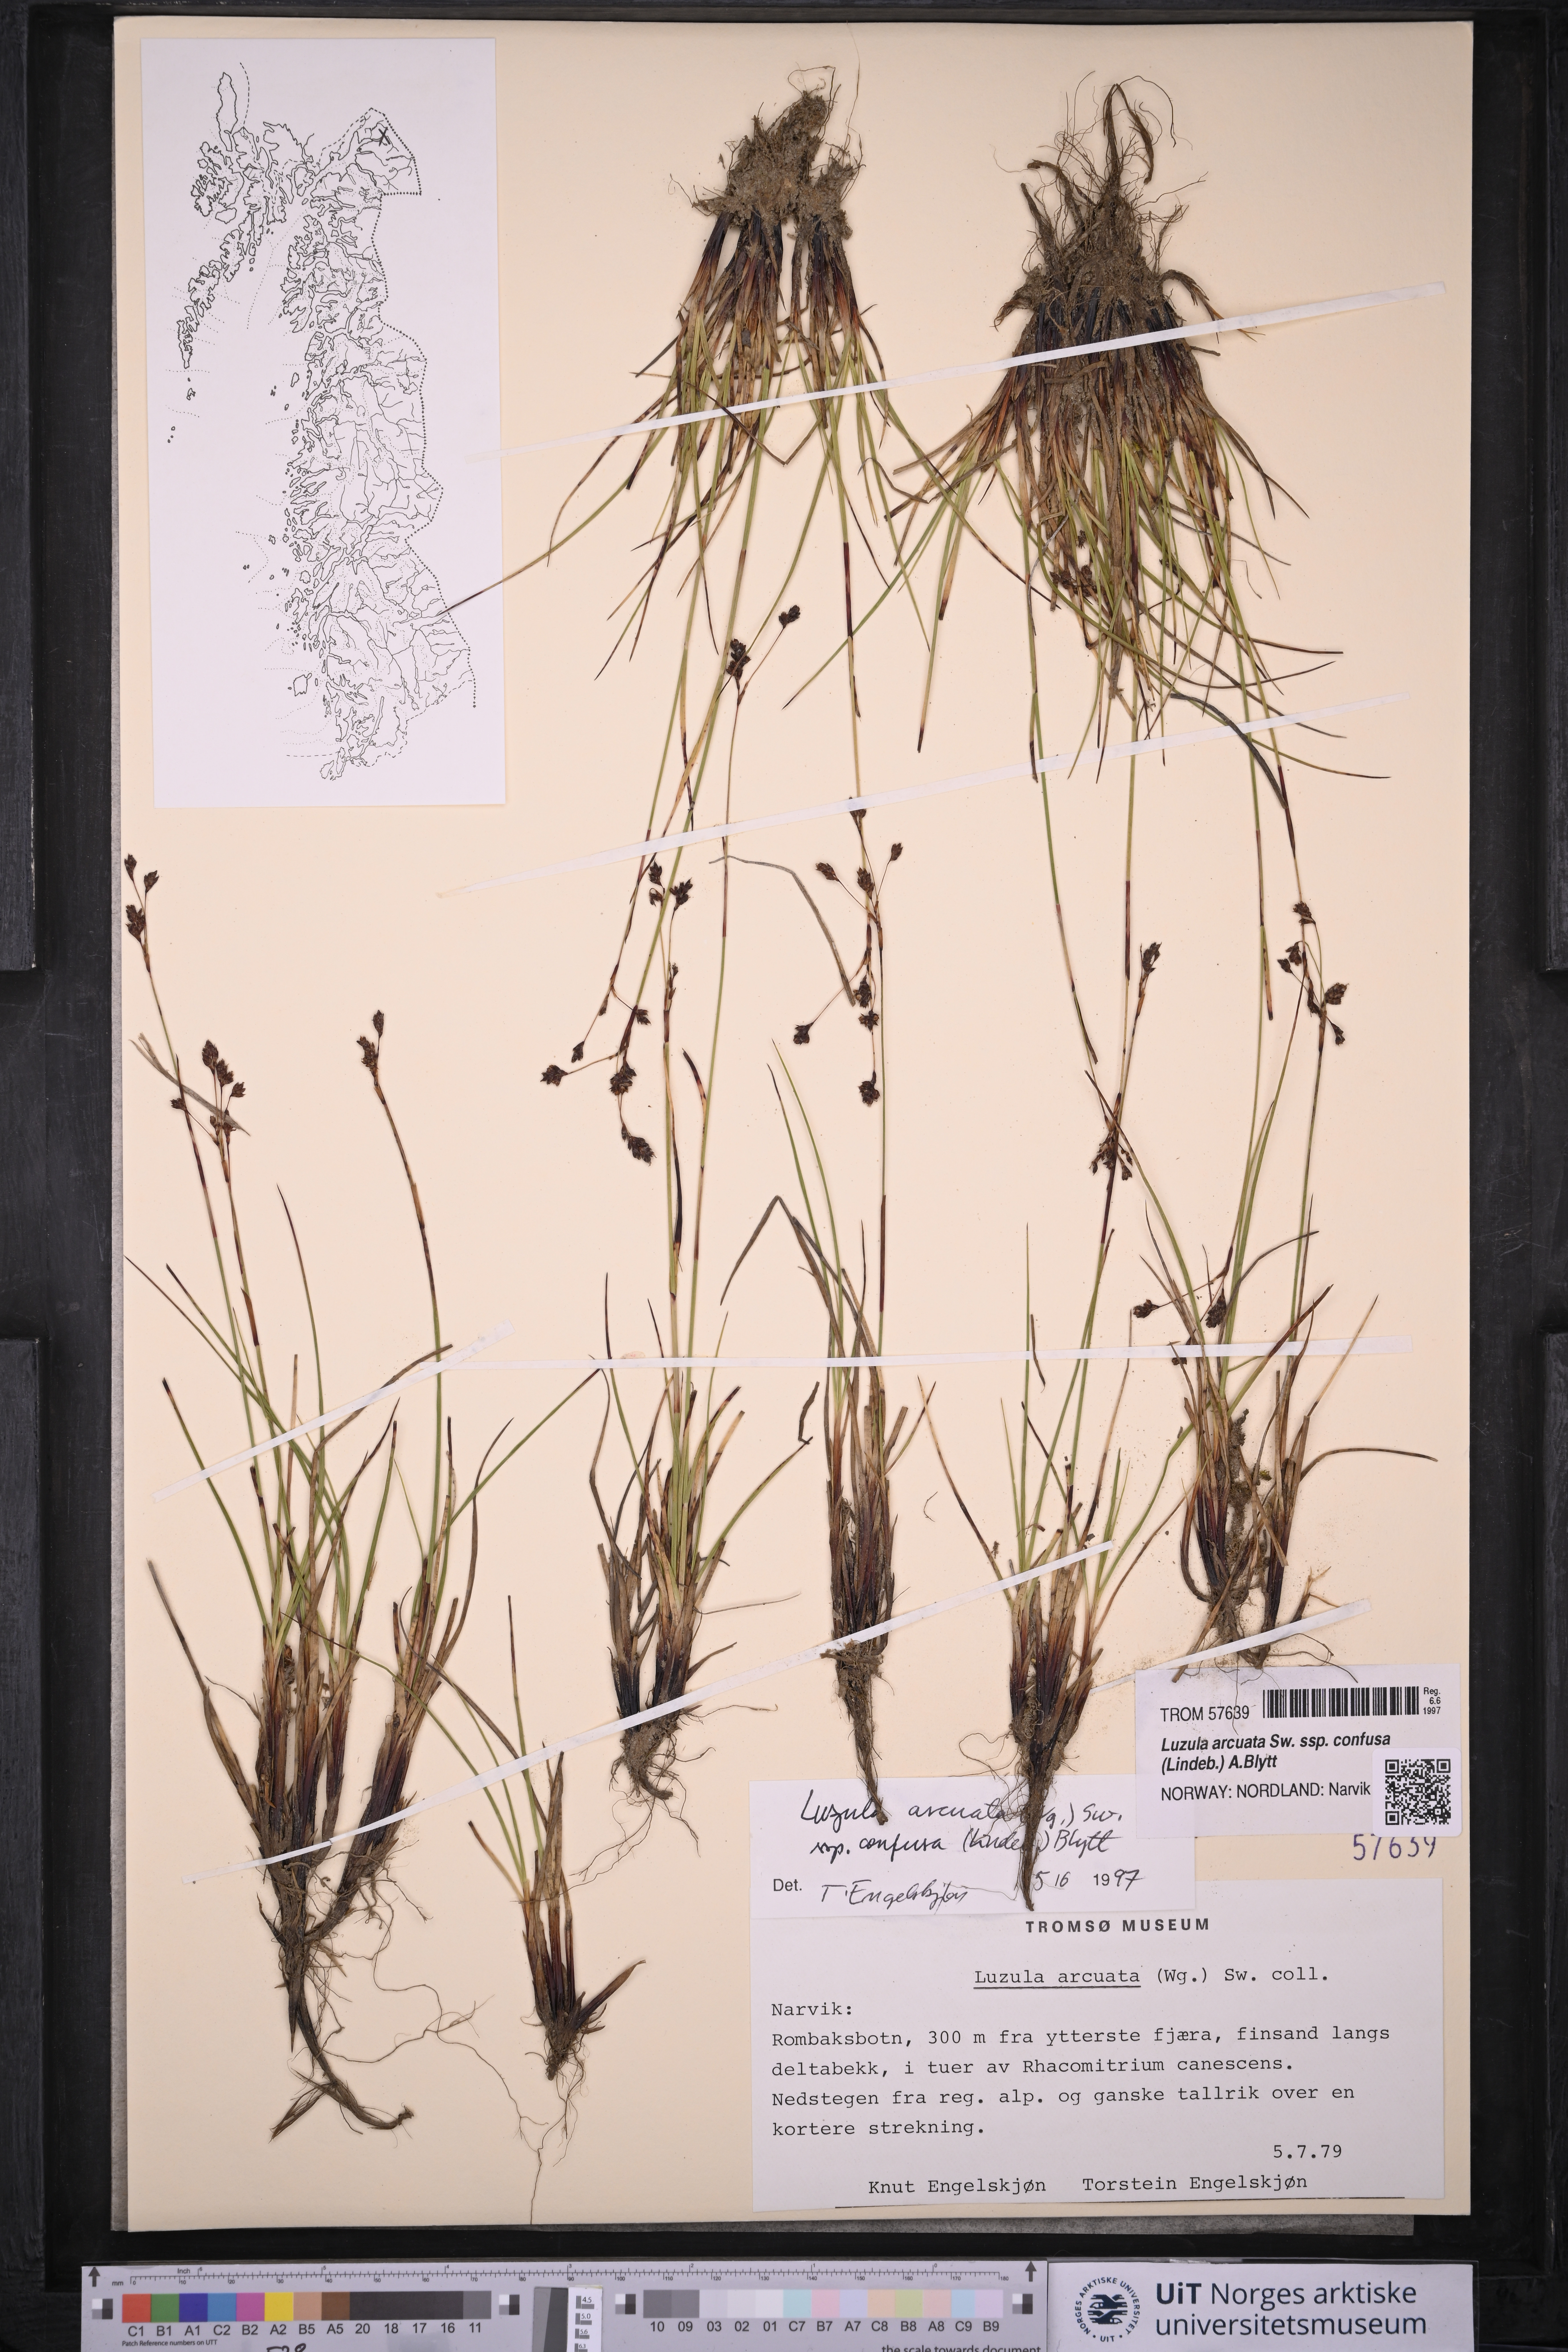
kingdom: Plantae
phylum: Tracheophyta
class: Liliopsida
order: Poales
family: Juncaceae
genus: Luzula
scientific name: Luzula confusa
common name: Northern wood rush
